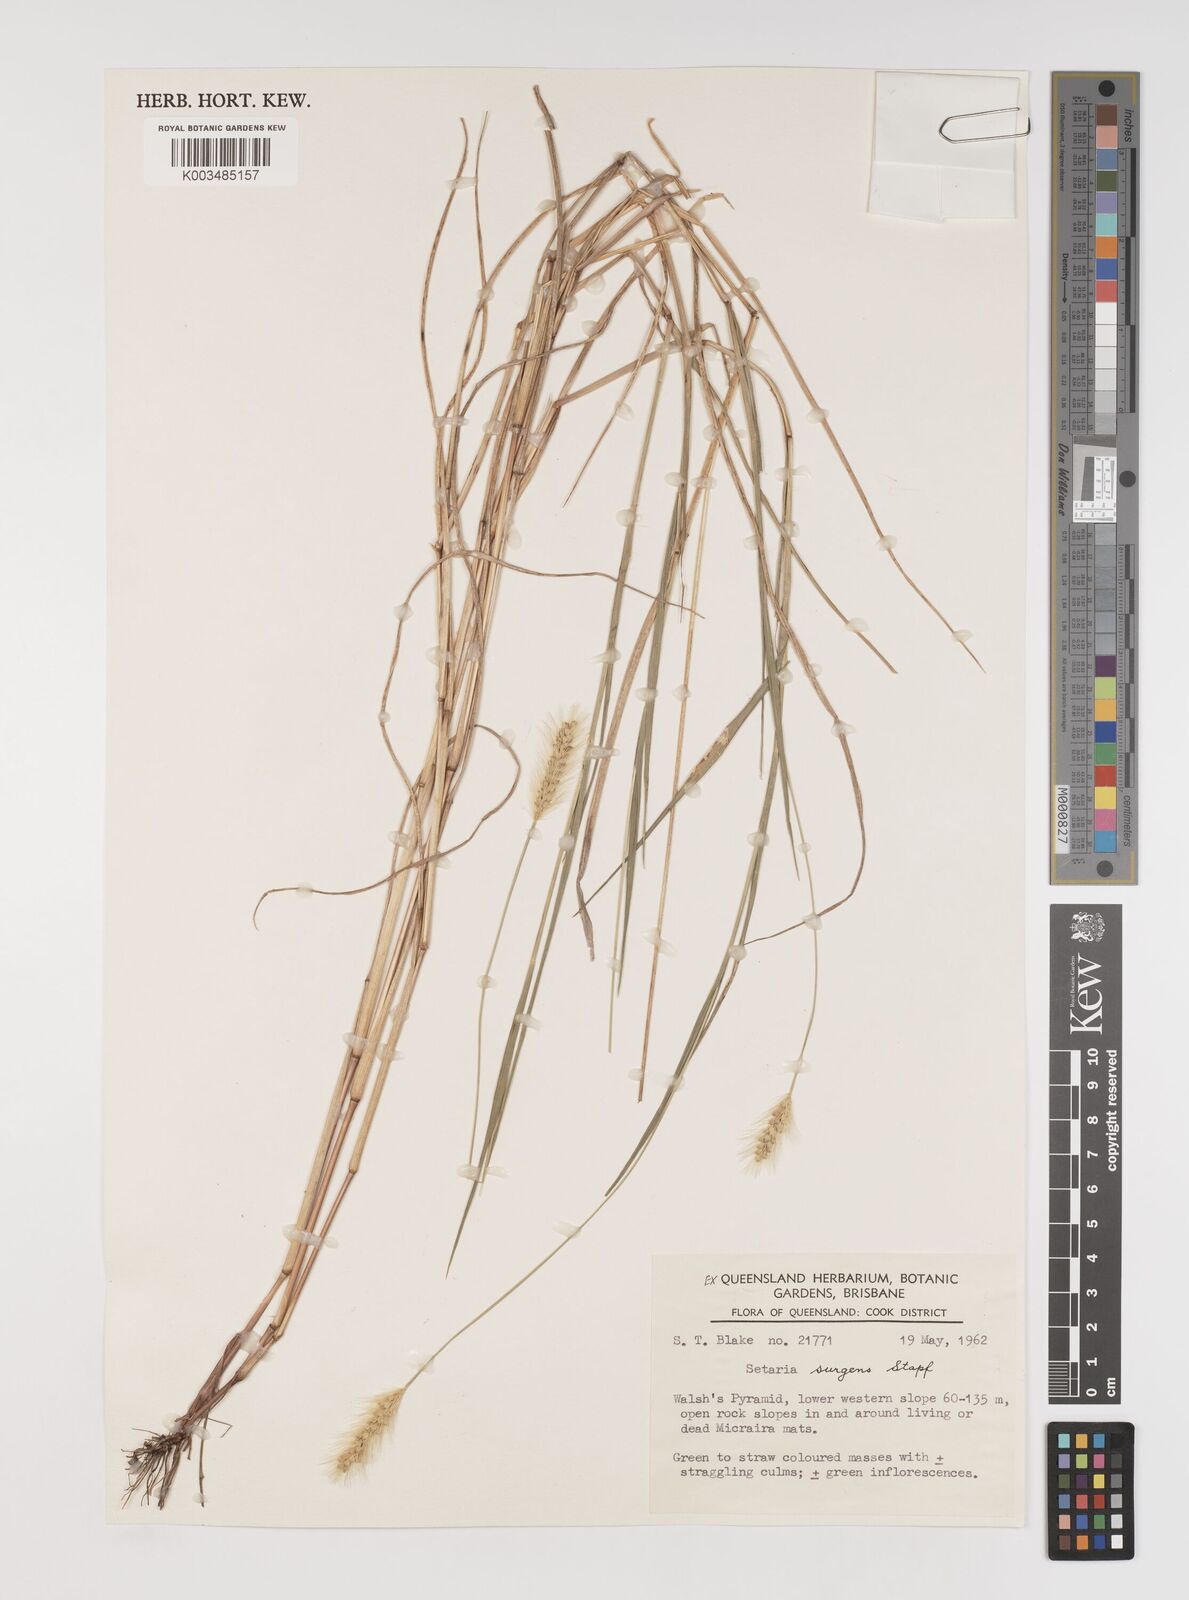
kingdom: Plantae
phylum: Tracheophyta
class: Liliopsida
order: Poales
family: Poaceae
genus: Setaria
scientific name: Setaria apiculata
